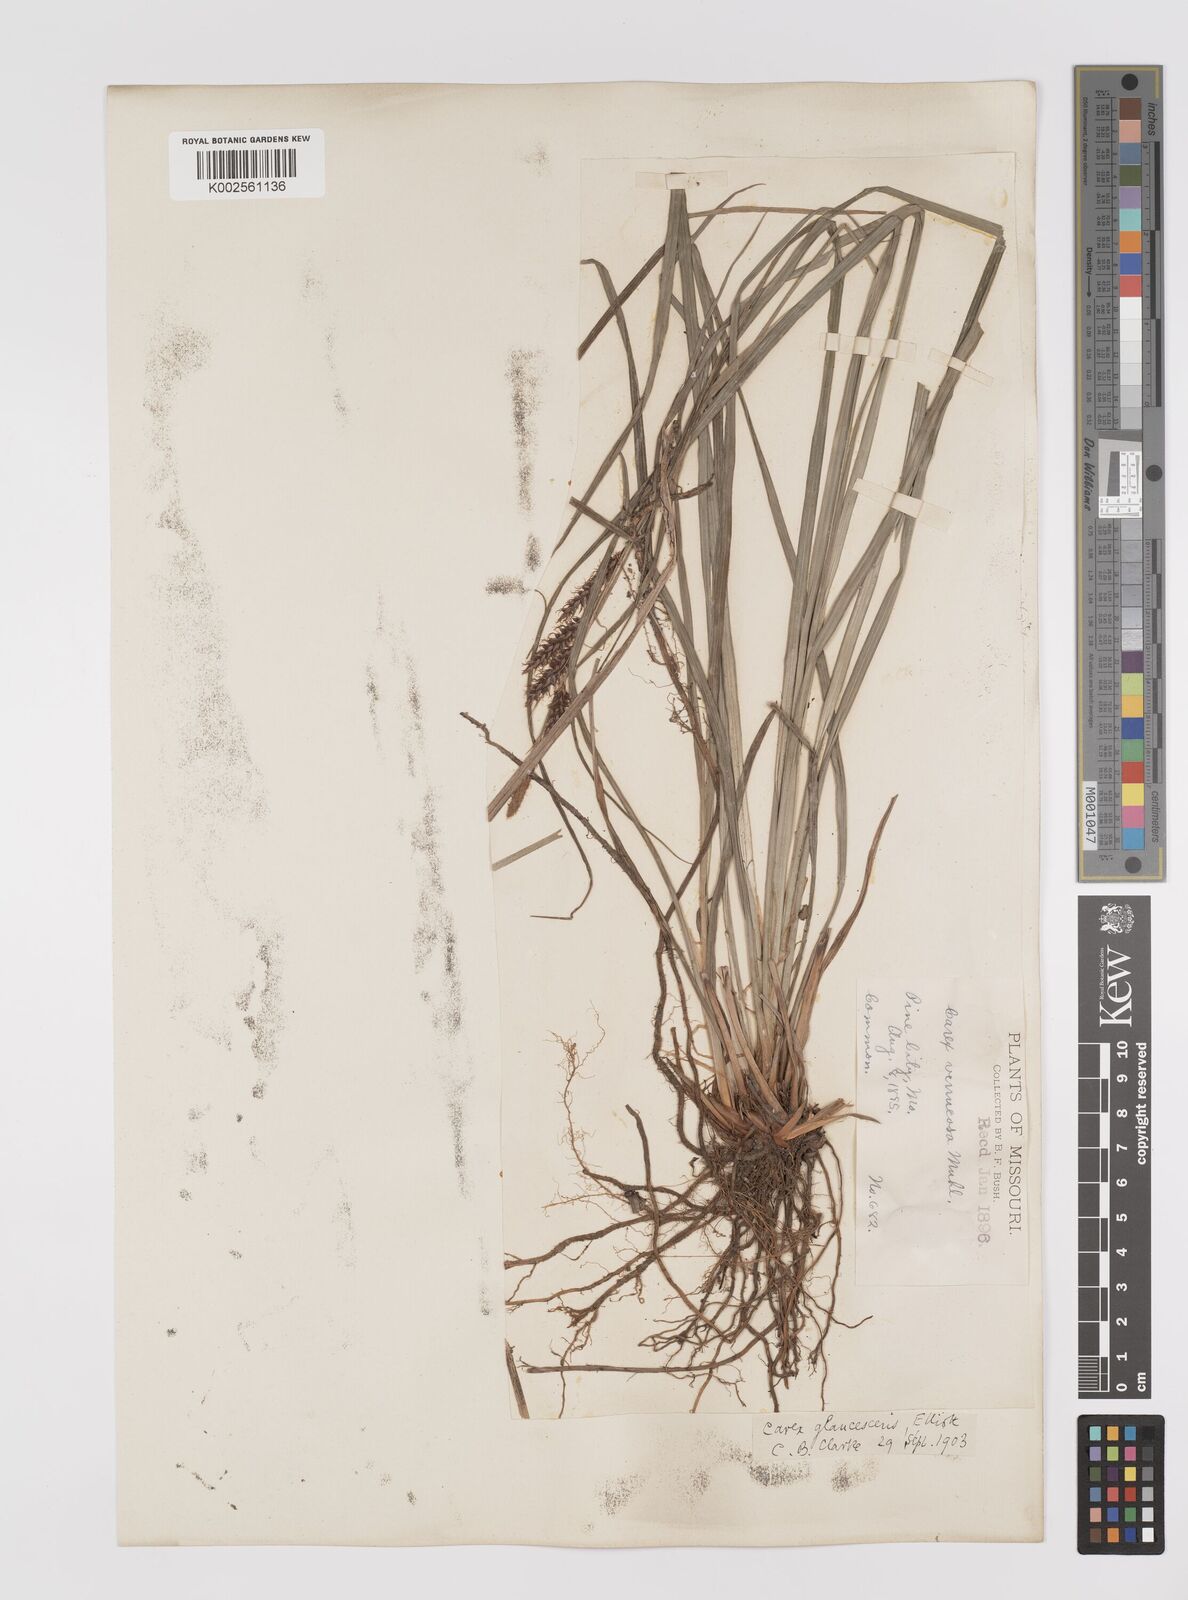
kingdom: Plantae
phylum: Tracheophyta
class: Liliopsida
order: Poales
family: Cyperaceae
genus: Carex
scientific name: Carex glaucescens
